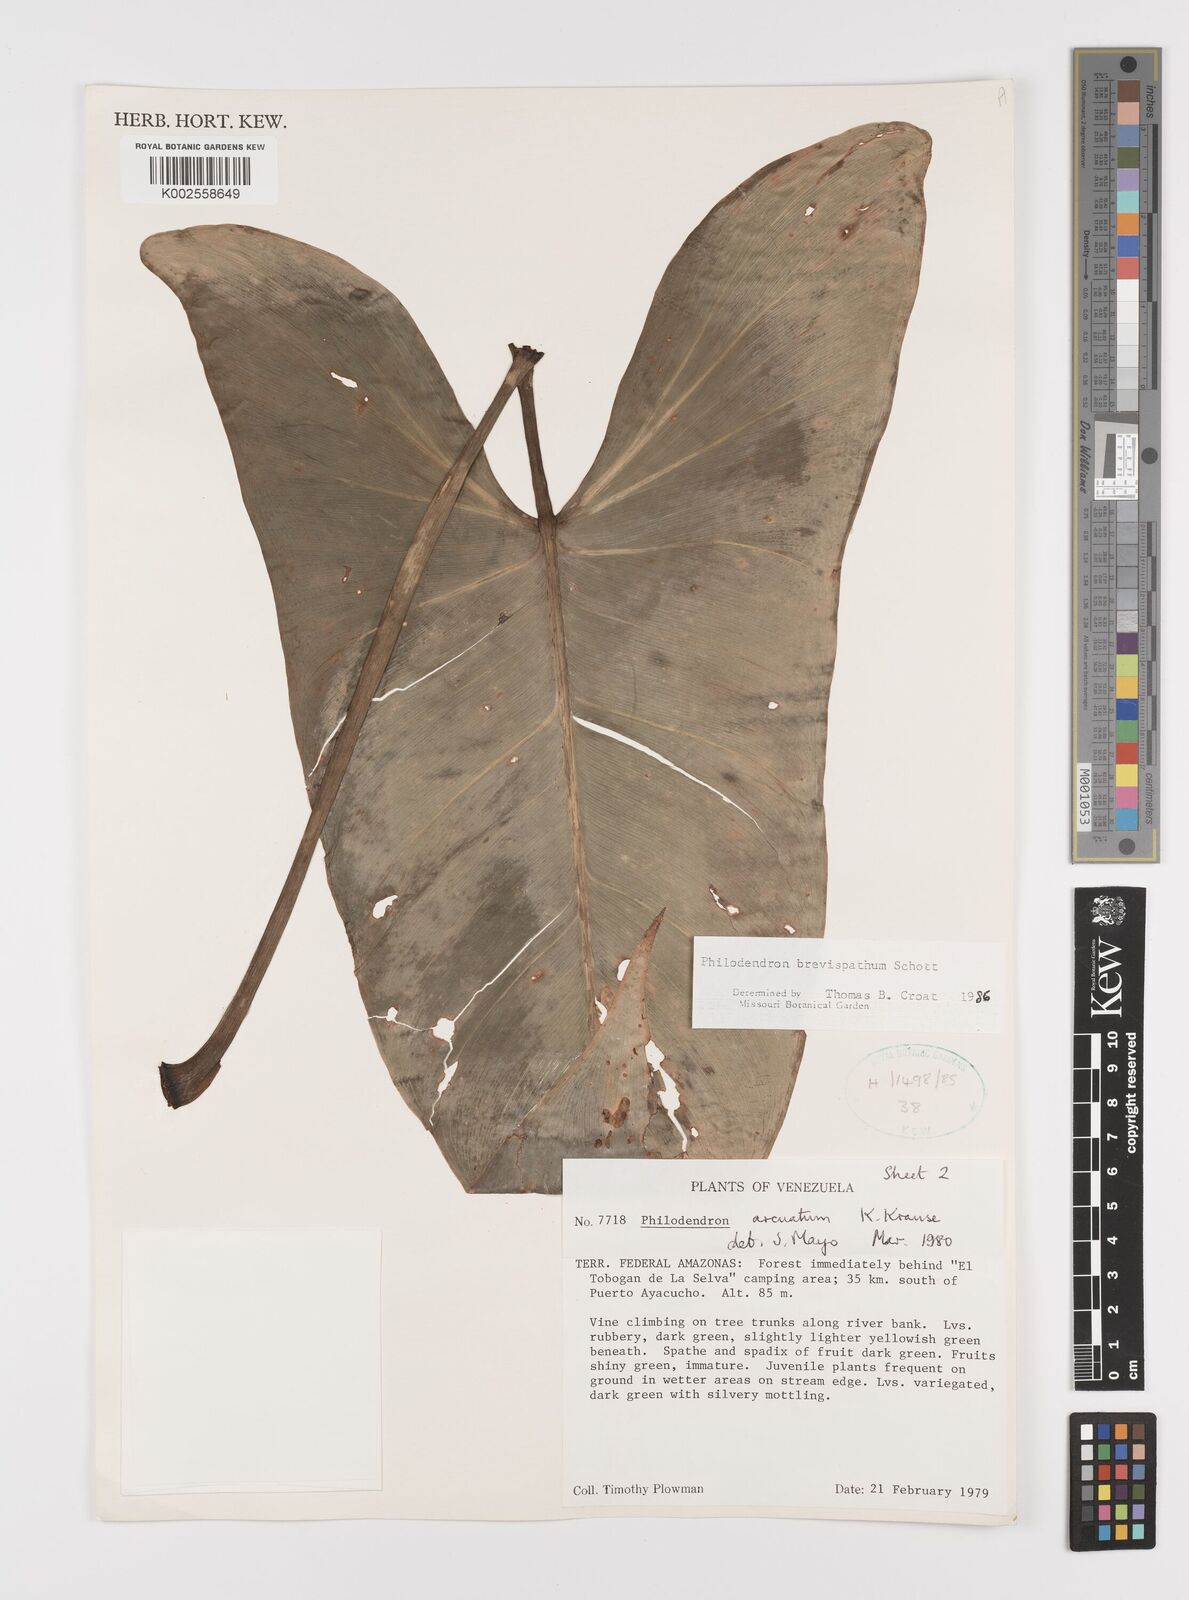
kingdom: Plantae
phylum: Tracheophyta
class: Liliopsida
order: Alismatales
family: Araceae
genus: Philodendron
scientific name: Philodendron brevispathum
